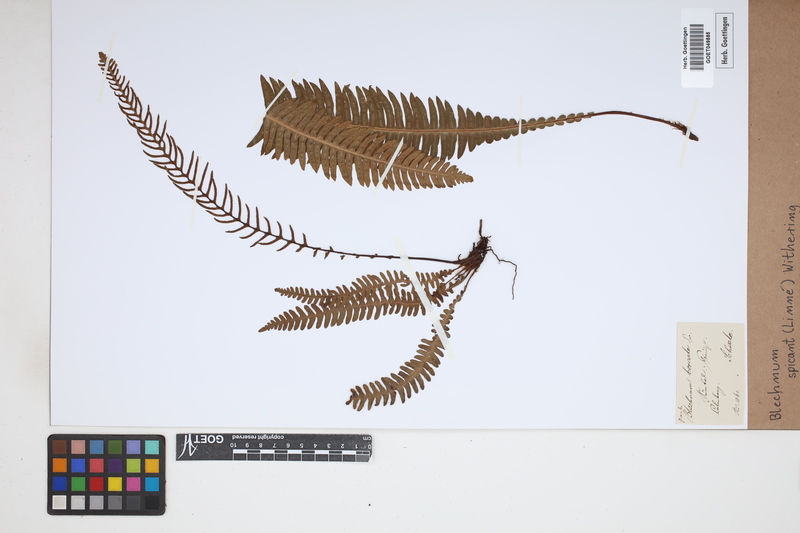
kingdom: Plantae
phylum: Tracheophyta
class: Polypodiopsida
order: Polypodiales
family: Blechnaceae
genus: Struthiopteris
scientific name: Struthiopteris spicant
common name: Deer fern
